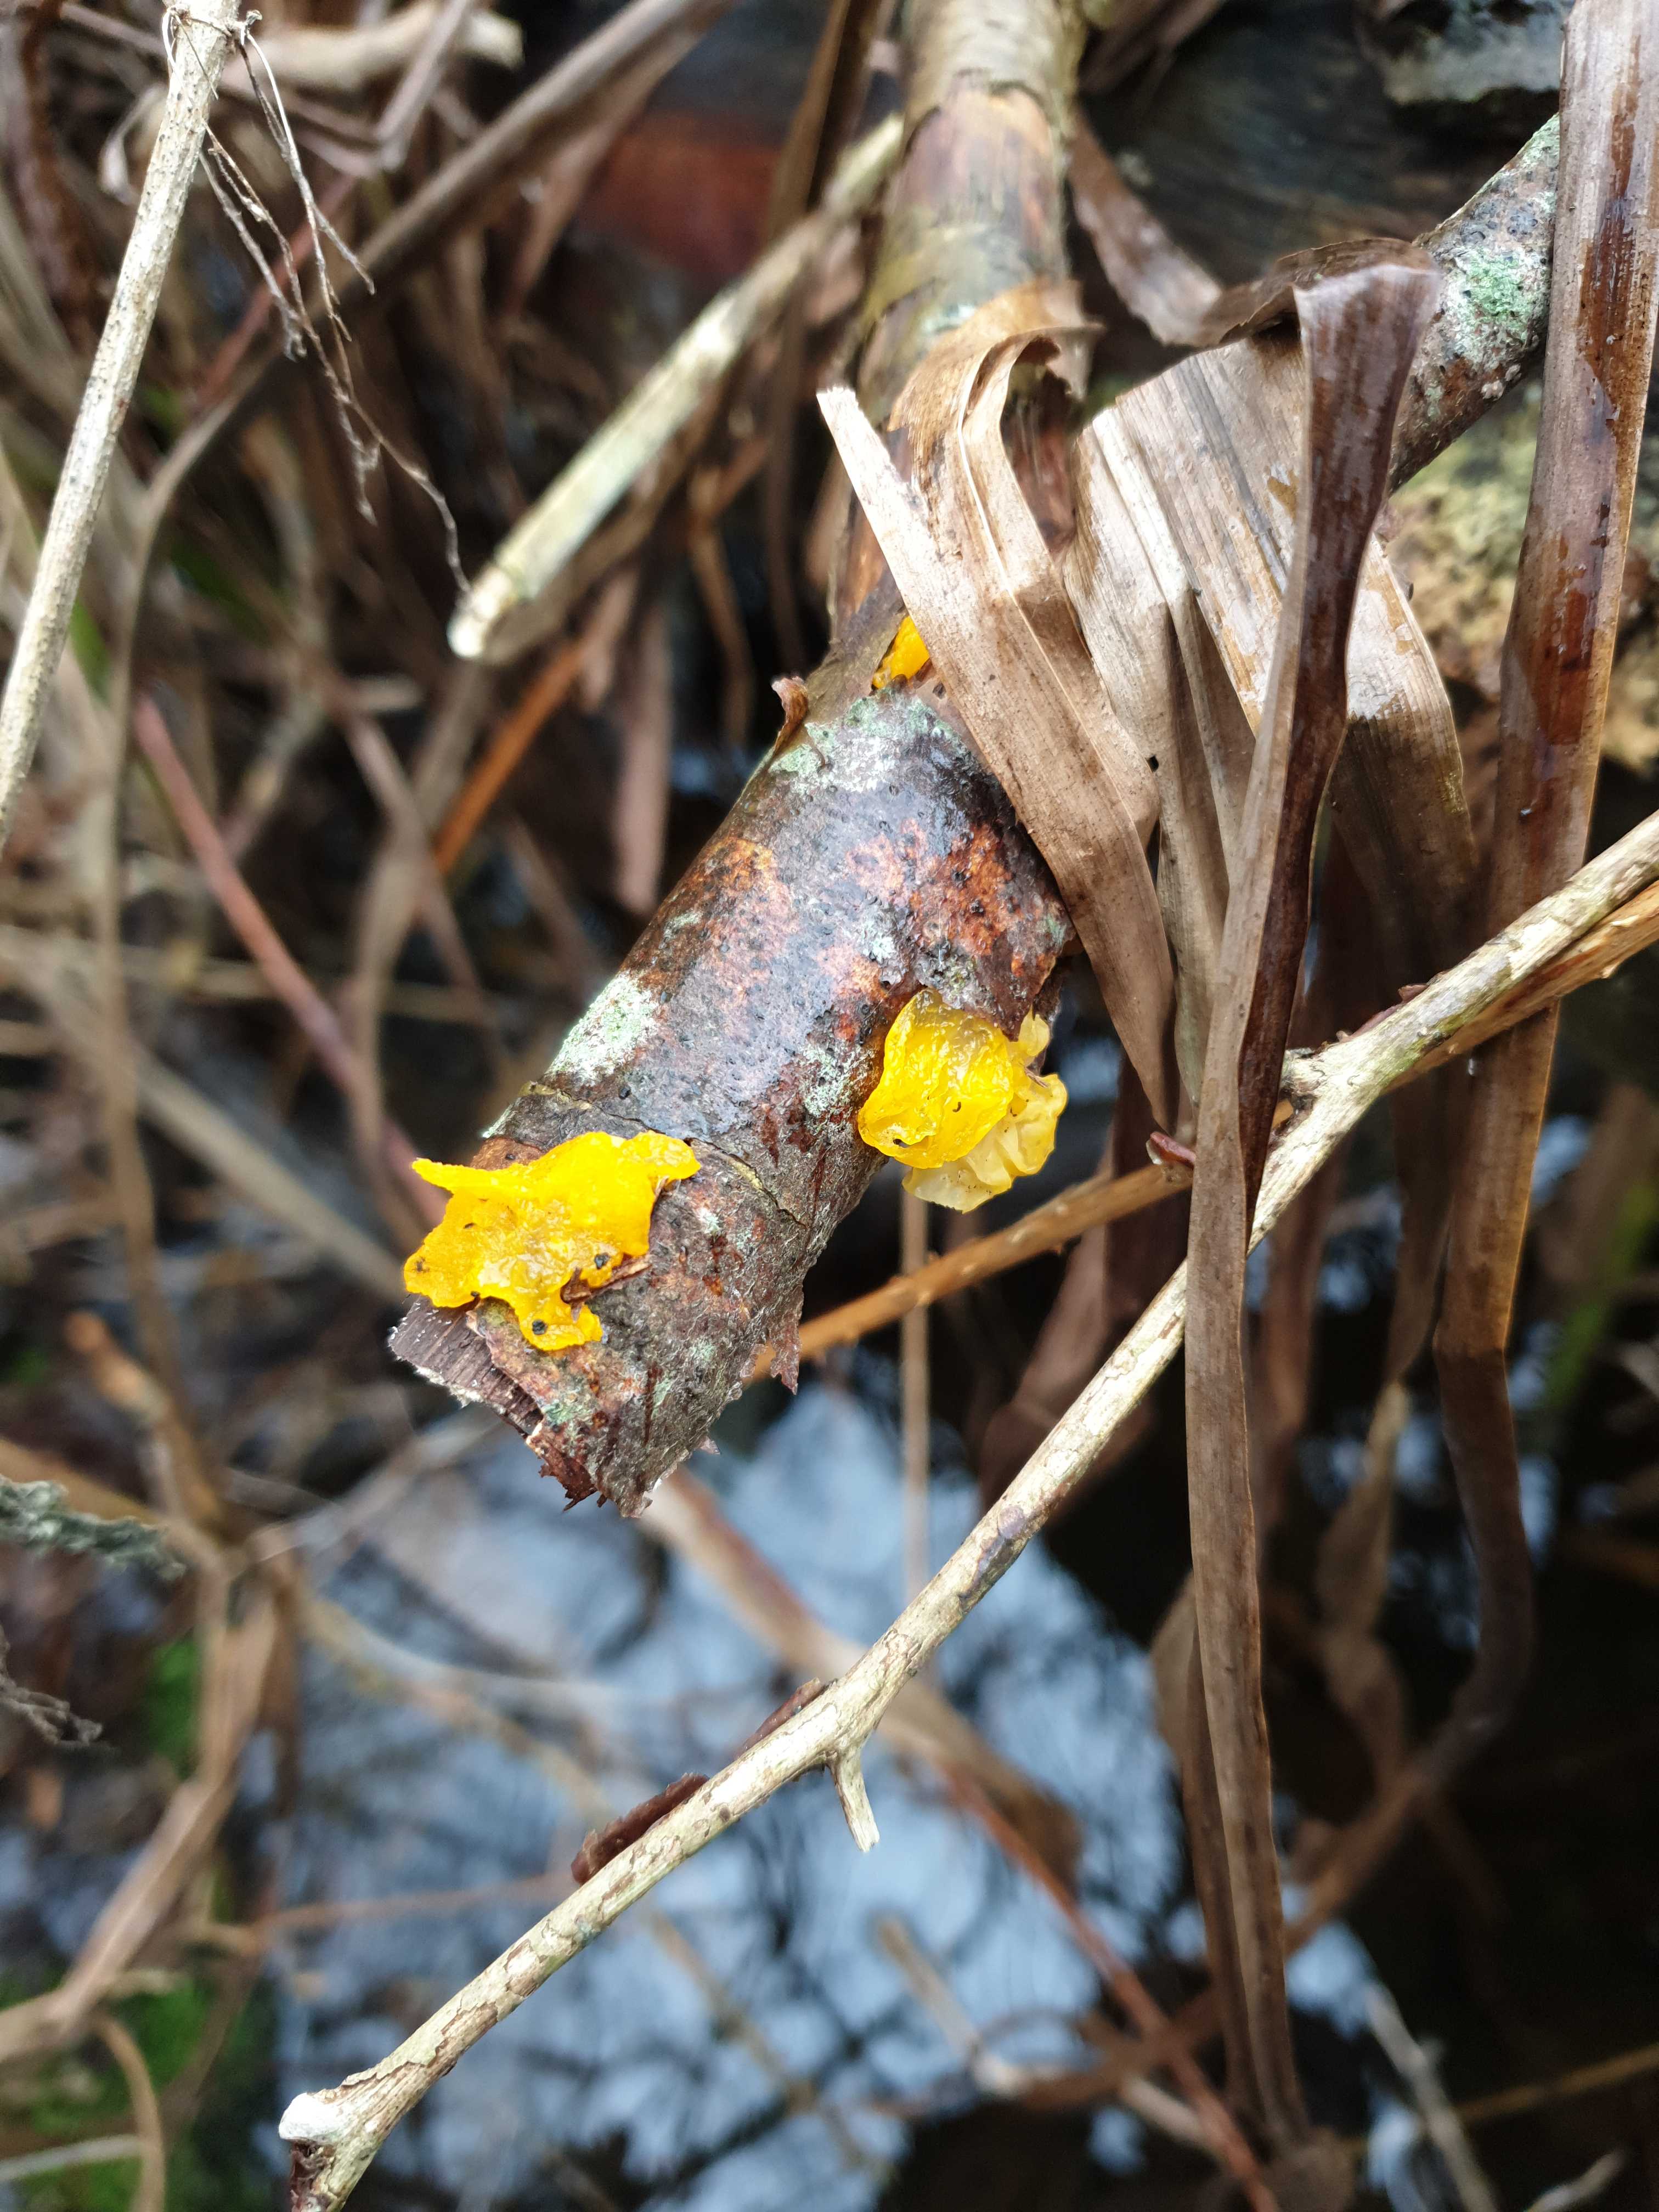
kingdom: Fungi
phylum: Basidiomycota
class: Tremellomycetes
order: Tremellales
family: Tremellaceae
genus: Tremella
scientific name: Tremella mesenterica
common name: gul bævresvamp
